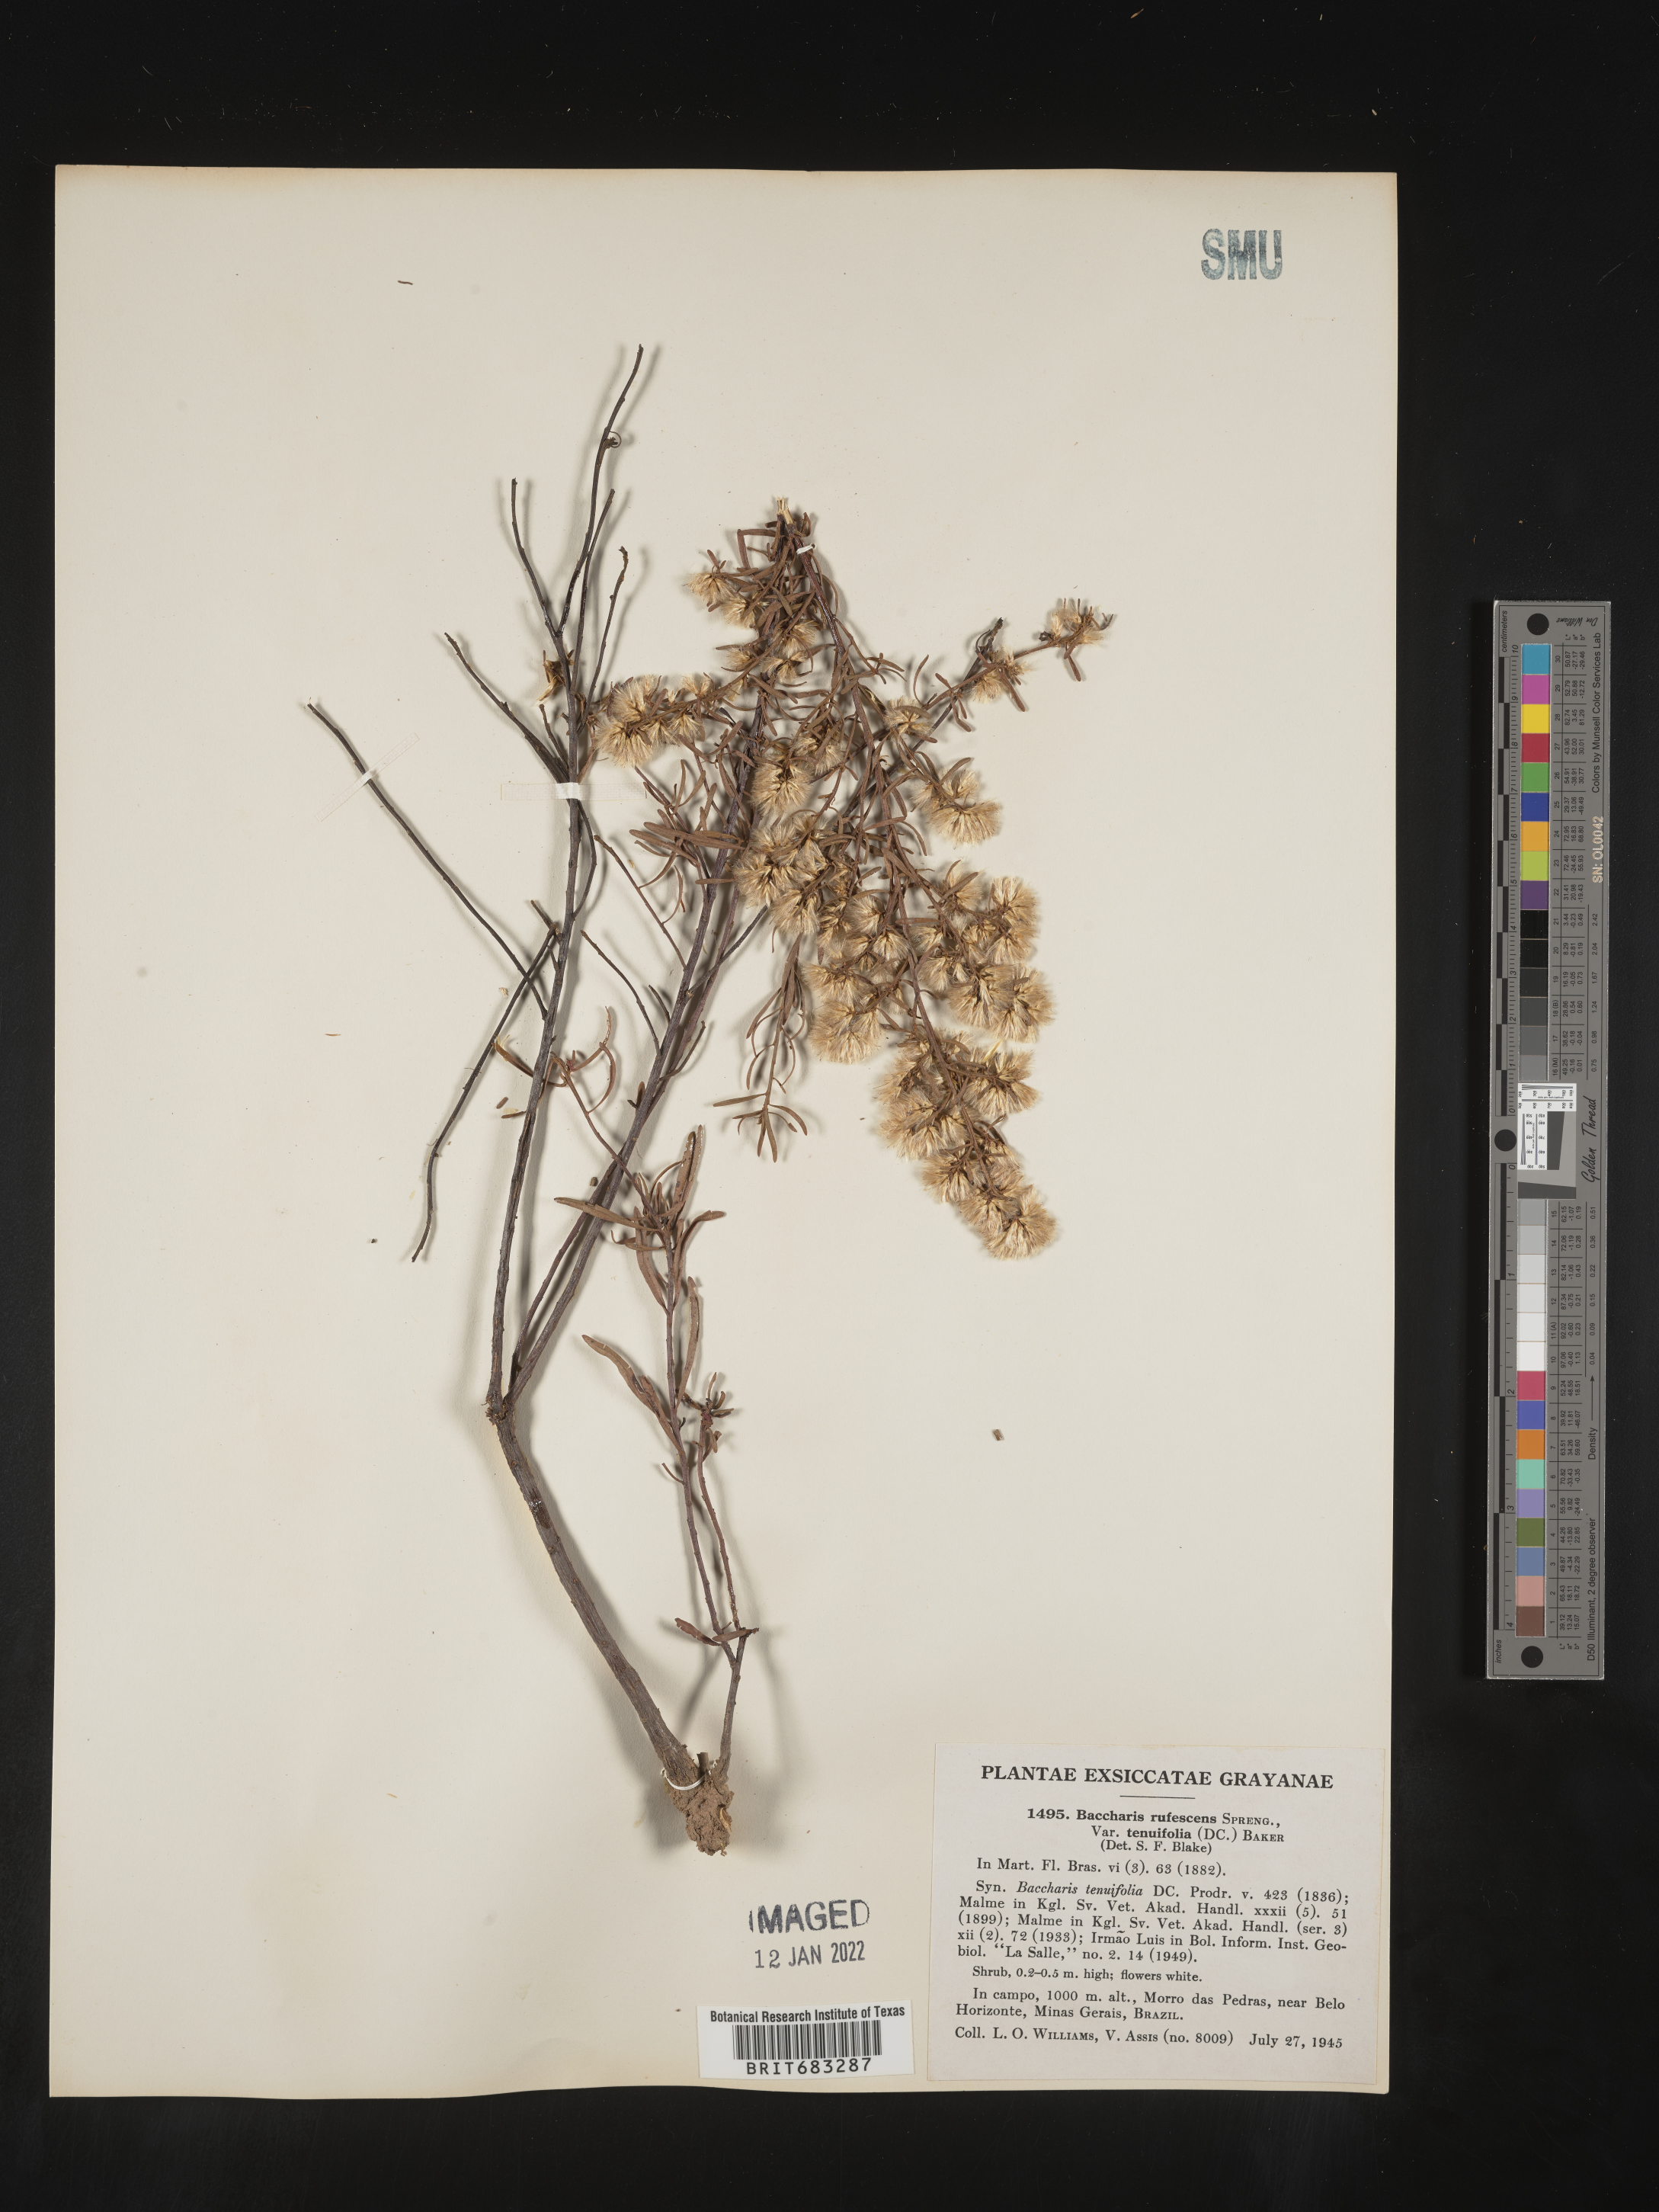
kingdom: Plantae
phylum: Tracheophyta
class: Magnoliopsida
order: Asterales
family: Asteraceae
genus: Baccharis
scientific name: Baccharis
